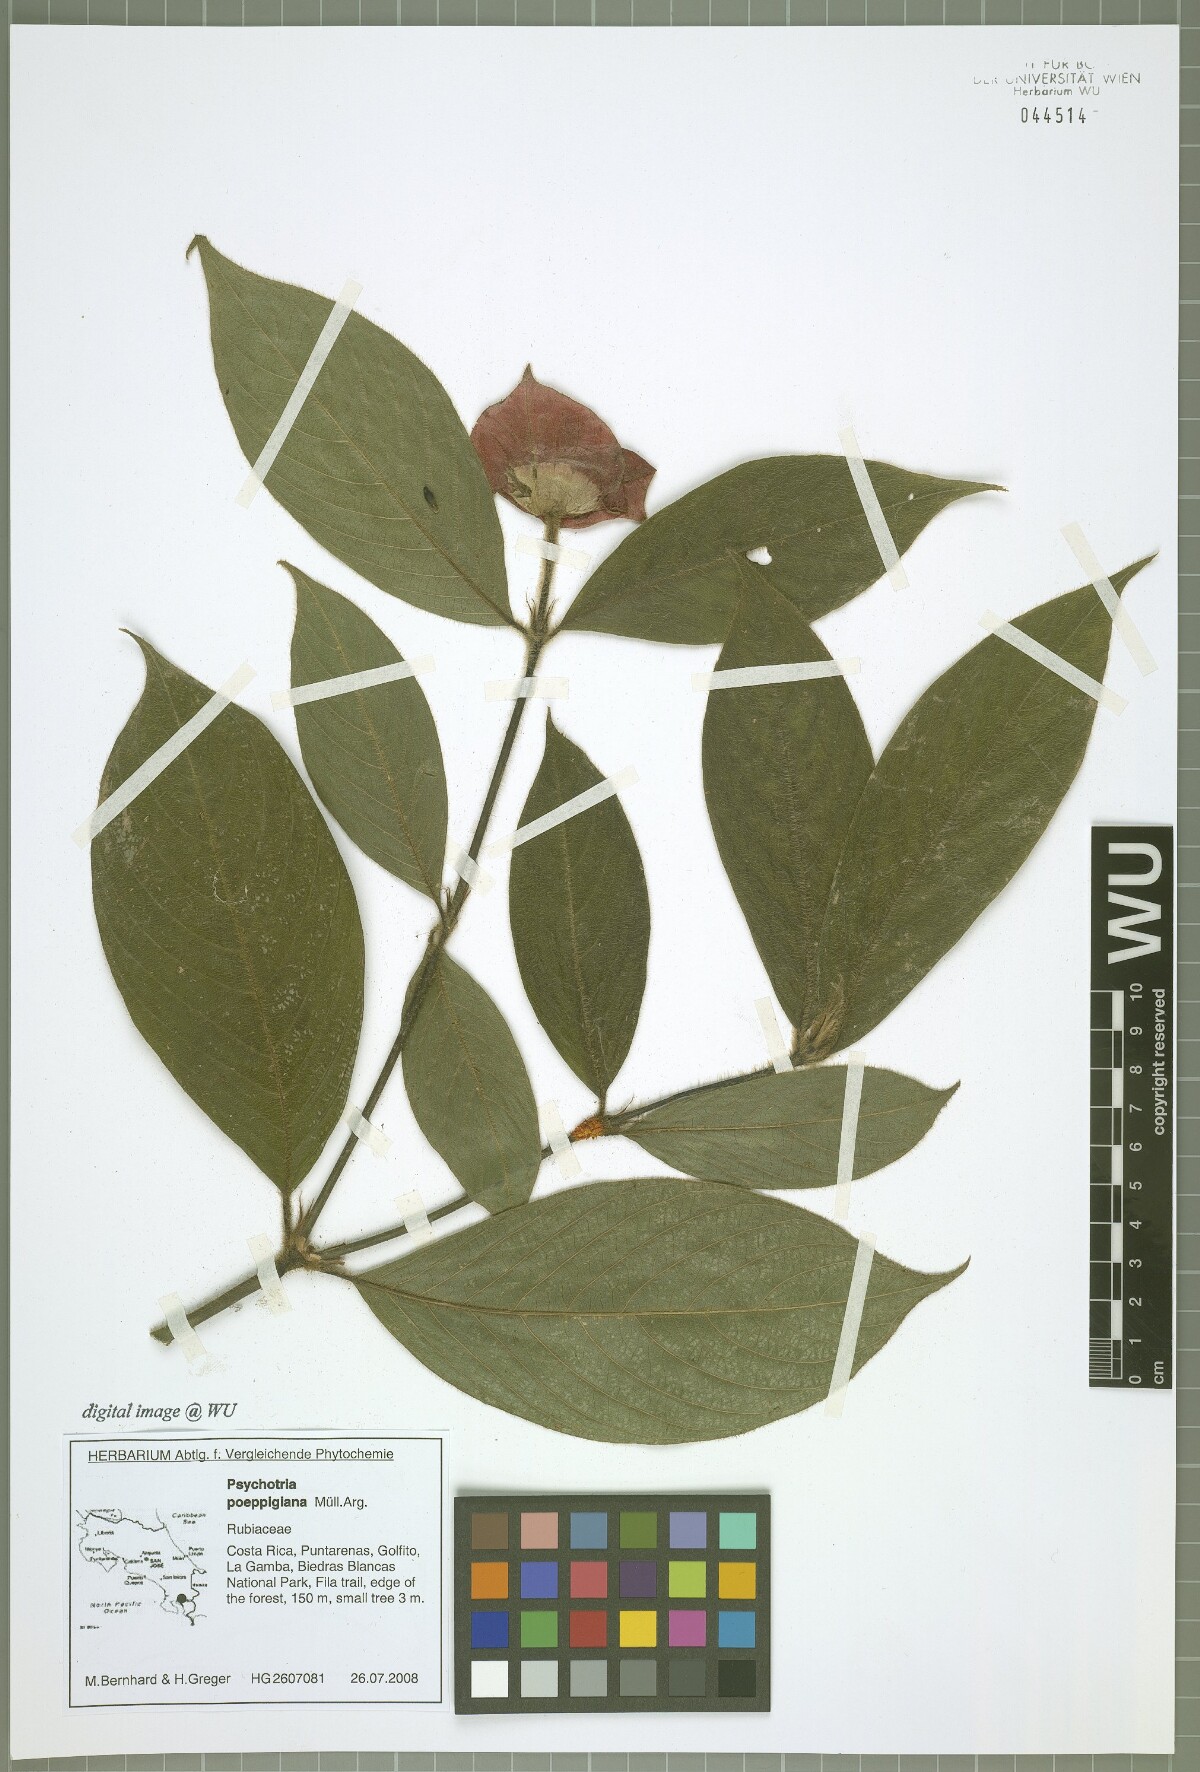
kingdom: Plantae
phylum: Tracheophyta
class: Magnoliopsida
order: Gentianales
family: Rubiaceae
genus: Palicourea
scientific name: Palicourea tomentosa
